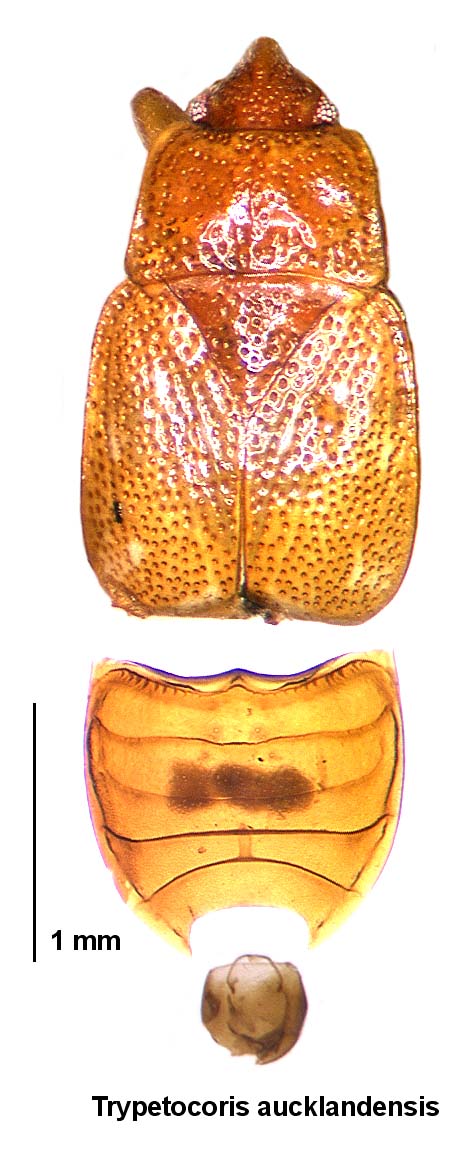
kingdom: Animalia
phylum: Arthropoda
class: Insecta
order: Hemiptera
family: Rhyparochromidae
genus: Trypetocoris
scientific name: Trypetocoris aucklandensis
